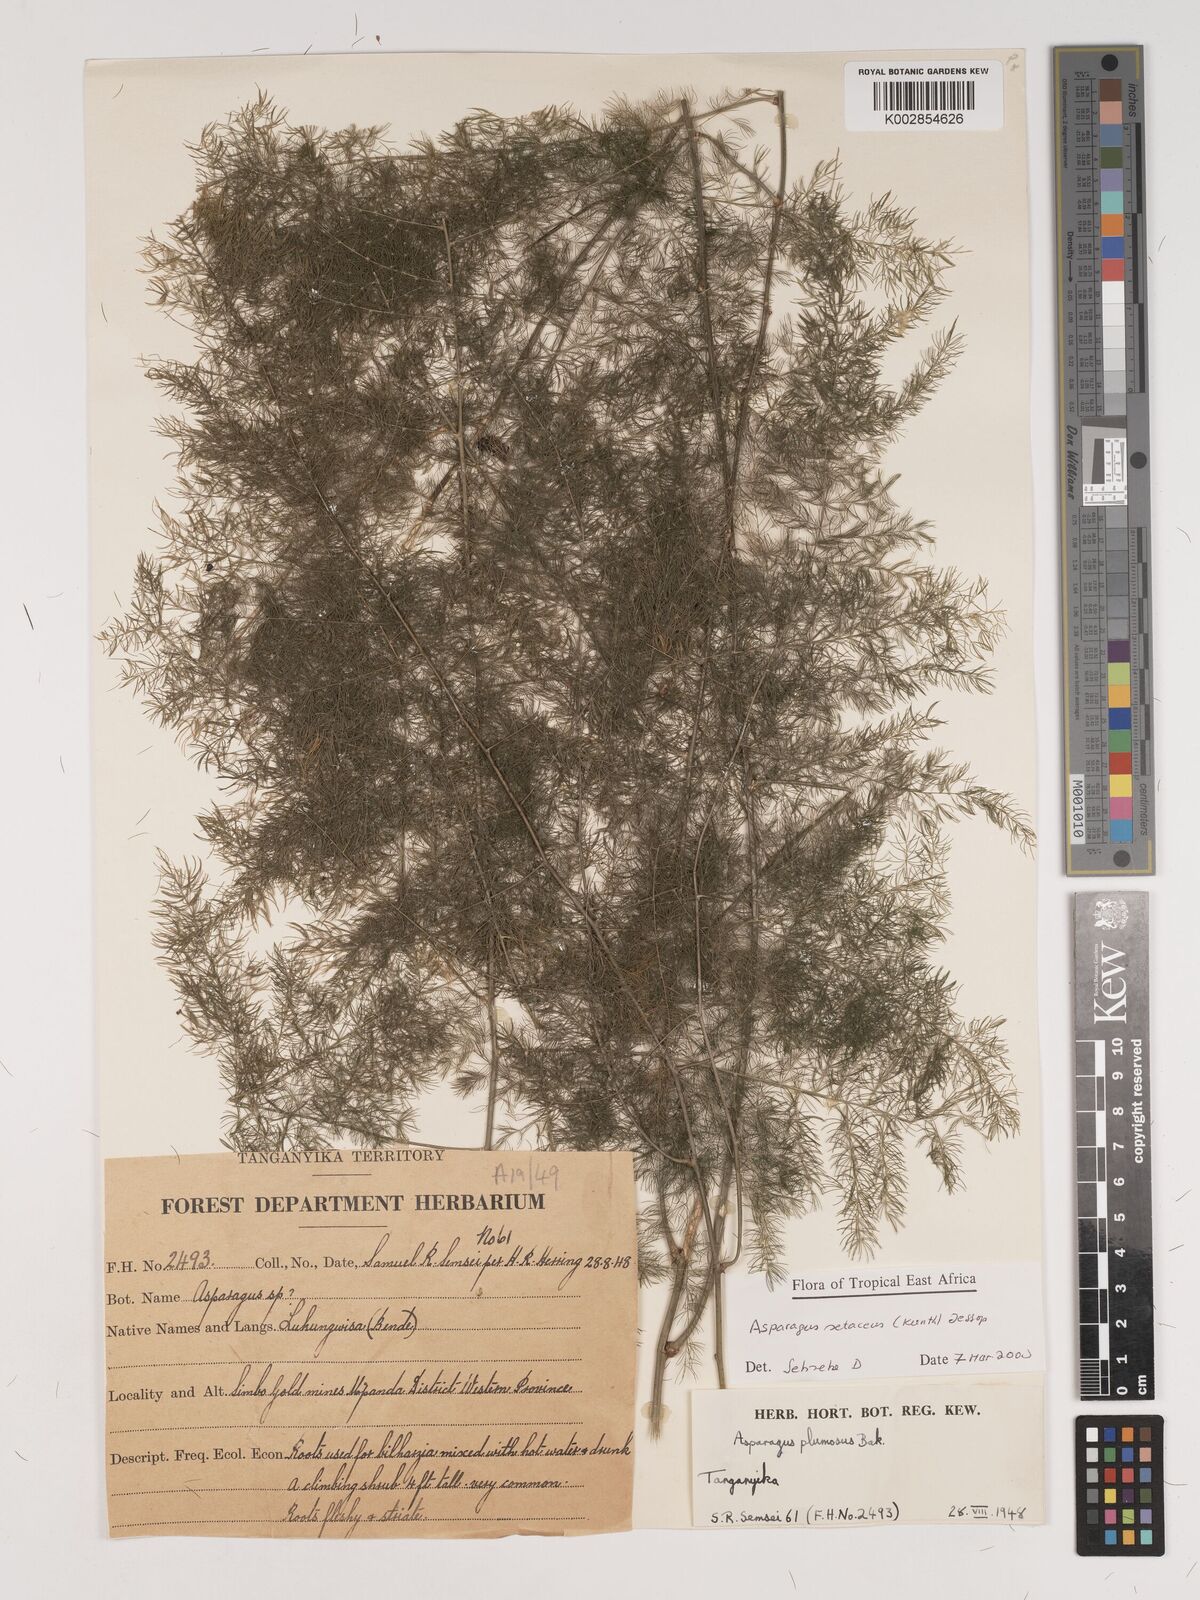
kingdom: Plantae
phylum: Tracheophyta
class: Liliopsida
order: Asparagales
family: Asparagaceae
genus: Asparagus
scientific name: Asparagus setaceus
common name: Common asparagus fern
